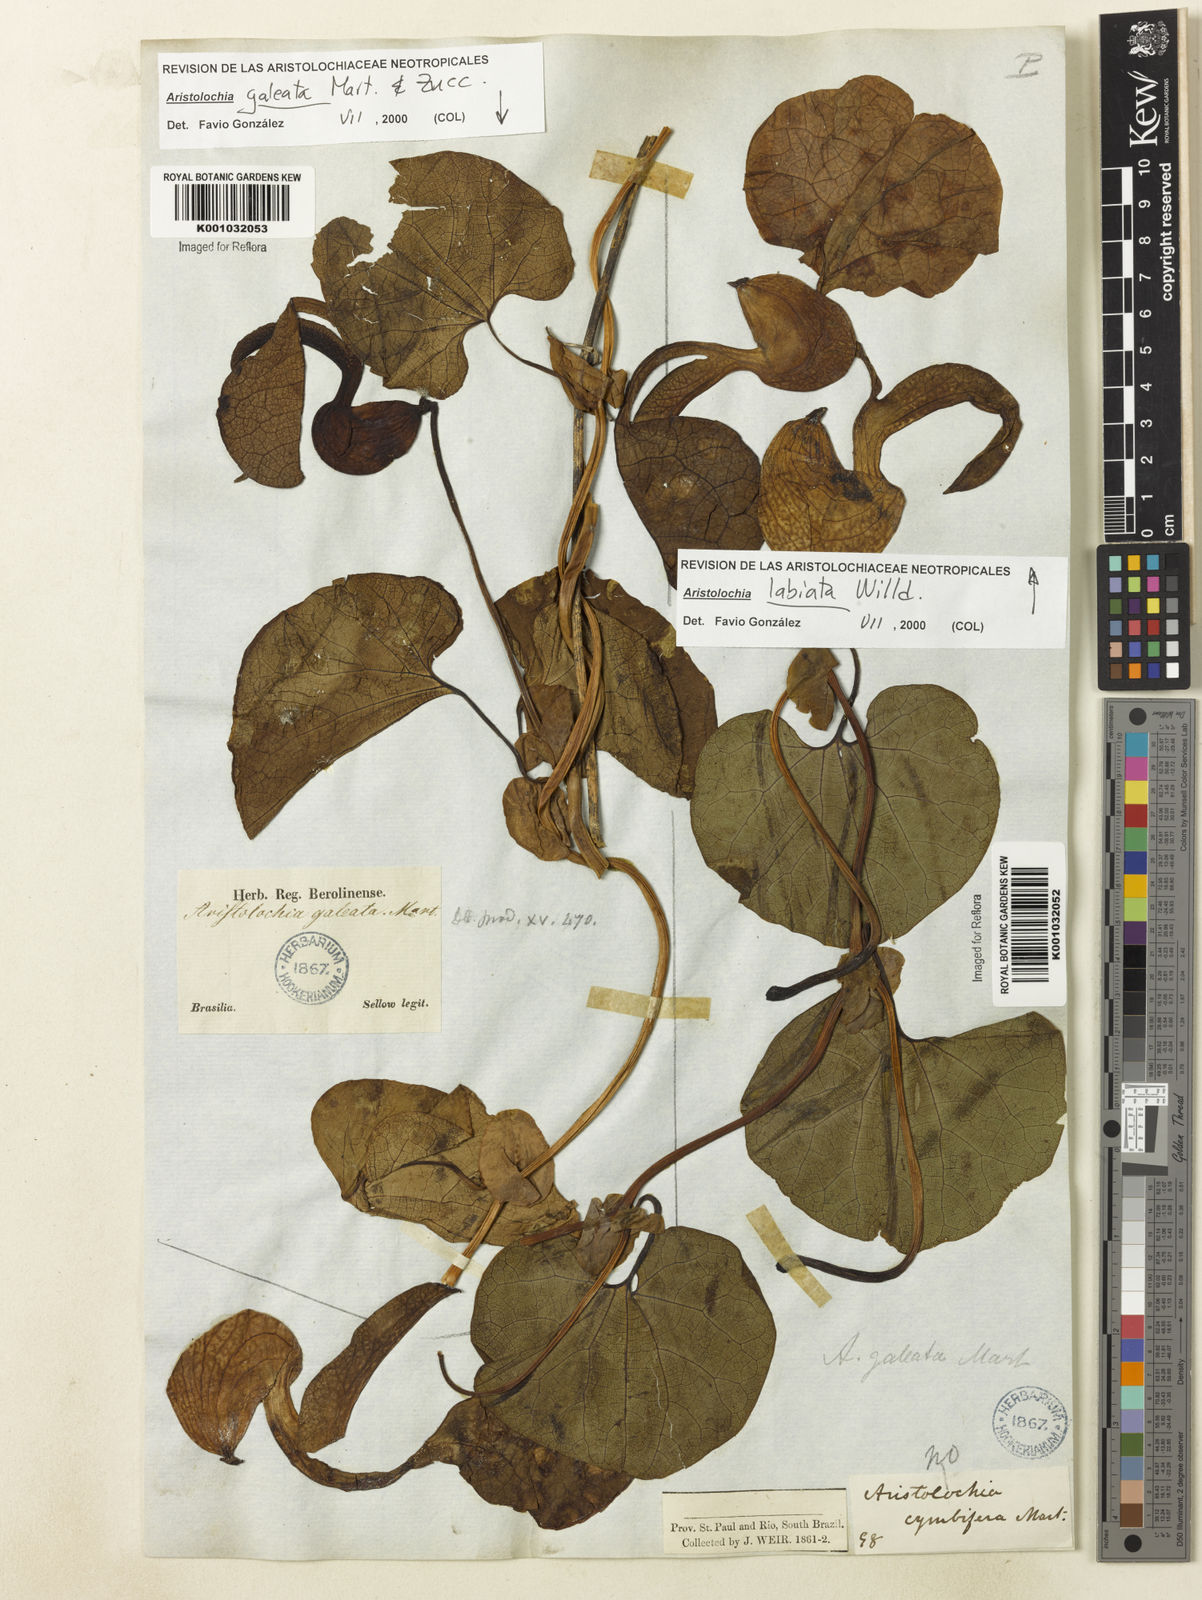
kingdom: Plantae
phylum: Tracheophyta
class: Magnoliopsida
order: Piperales
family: Aristolochiaceae
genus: Aristolochia
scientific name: Aristolochia
